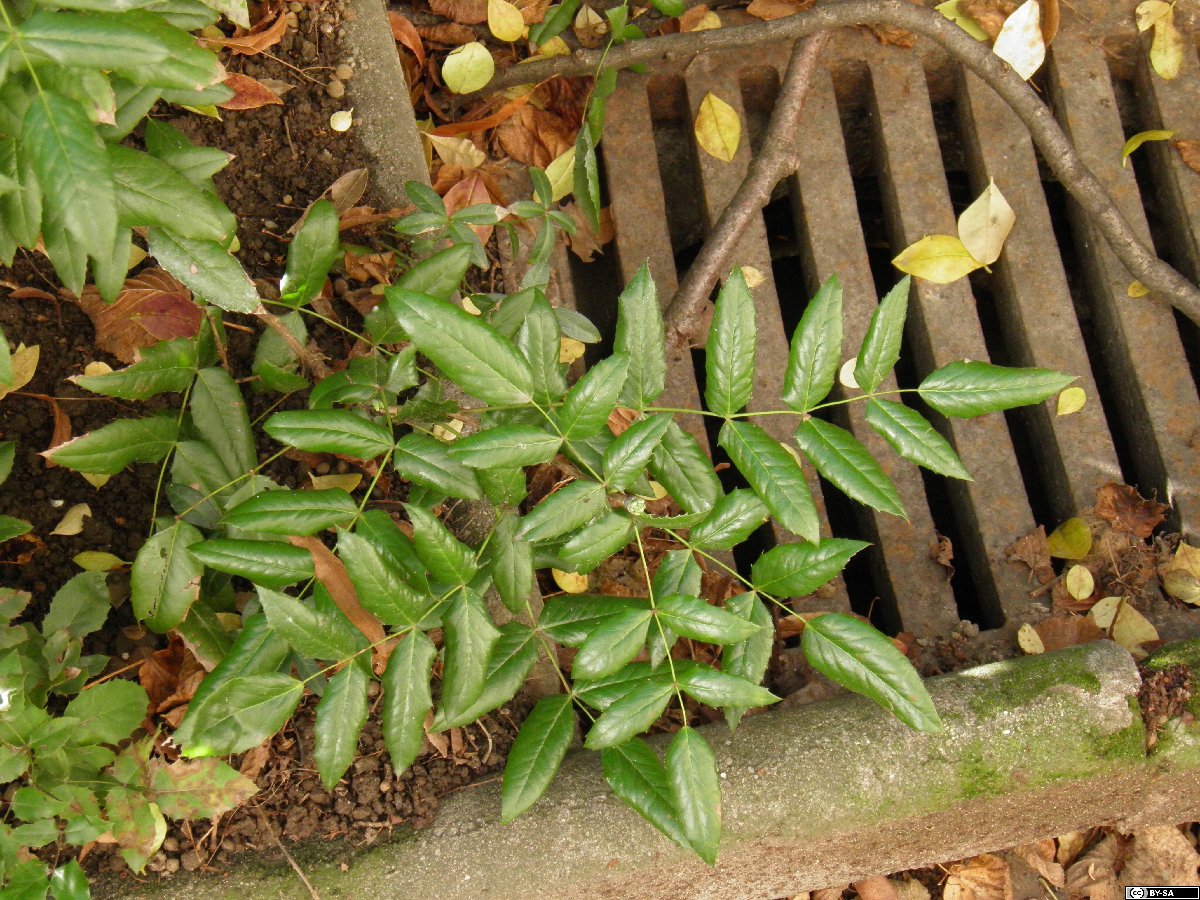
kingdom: Plantae
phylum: Tracheophyta
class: Magnoliopsida
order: Ranunculales
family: Berberidaceae
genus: Mahonia
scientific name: Mahonia wagneri
